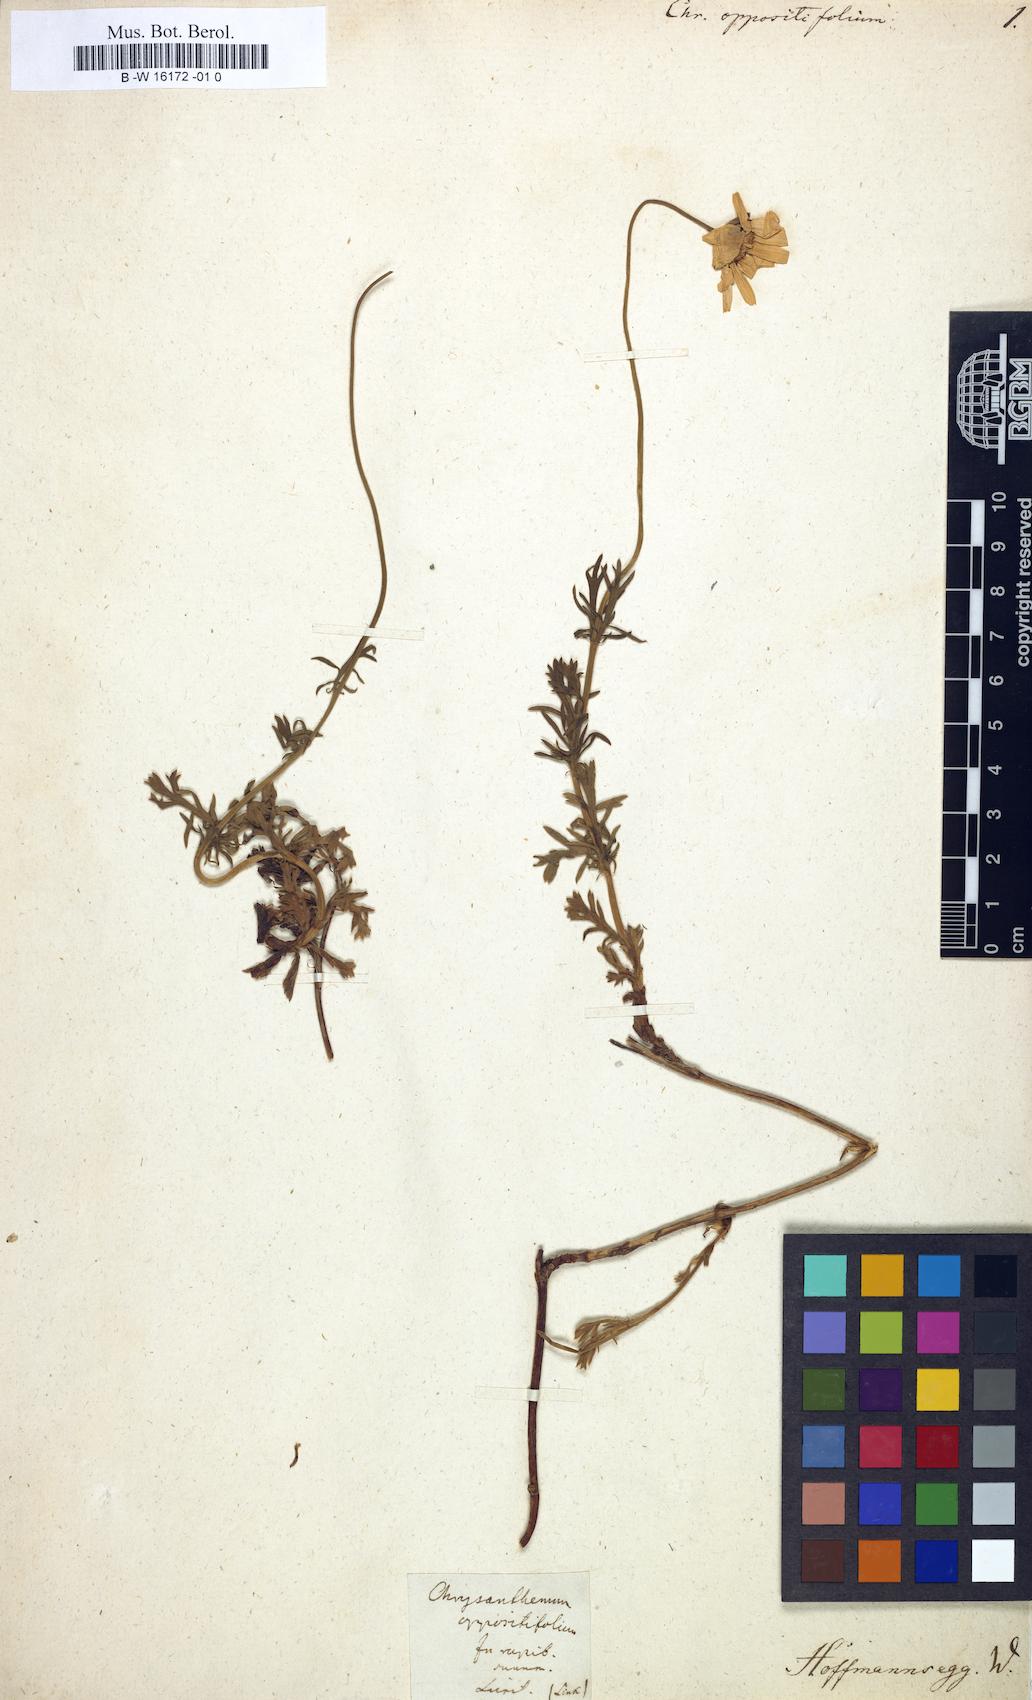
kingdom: Plantae
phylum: Tracheophyta
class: Magnoliopsida
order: Asterales
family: Asteraceae
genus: Phalacrocarpum
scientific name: Phalacrocarpum oppositifolium
